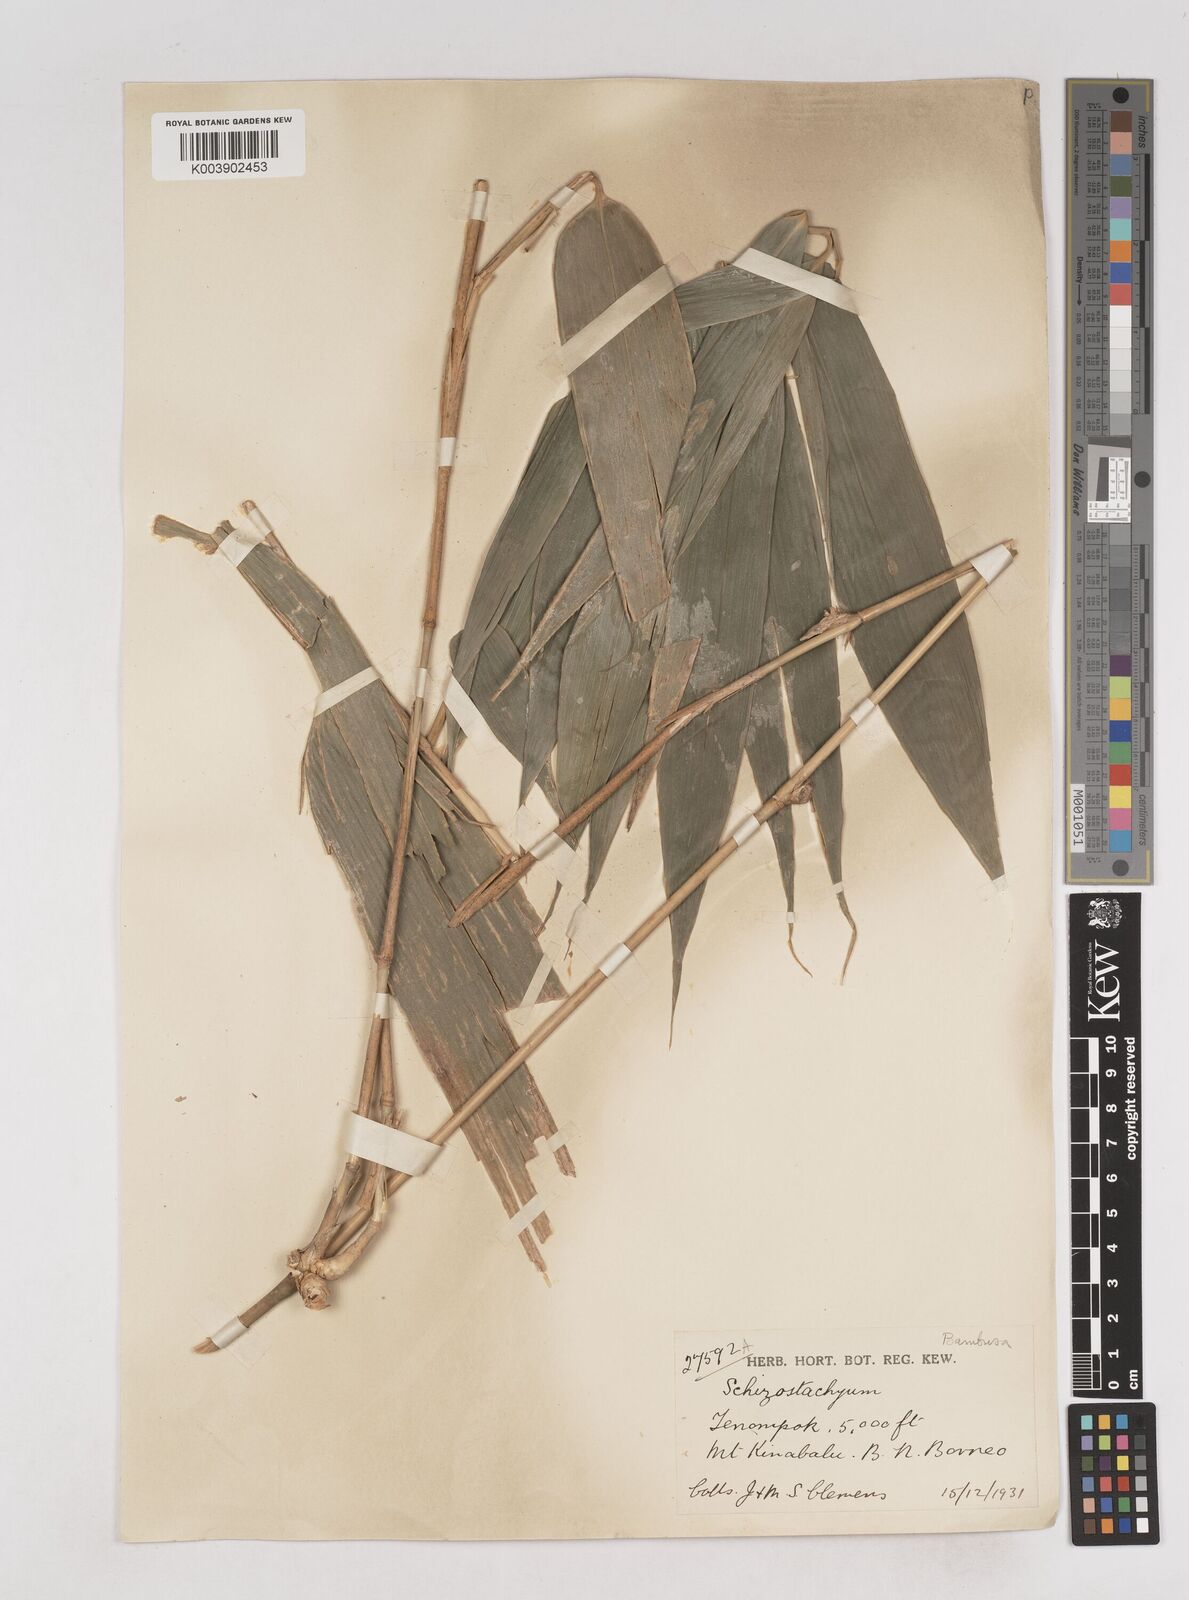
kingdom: Plantae
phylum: Tracheophyta
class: Liliopsida
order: Poales
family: Poaceae
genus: Schizostachyum
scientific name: Schizostachyum
